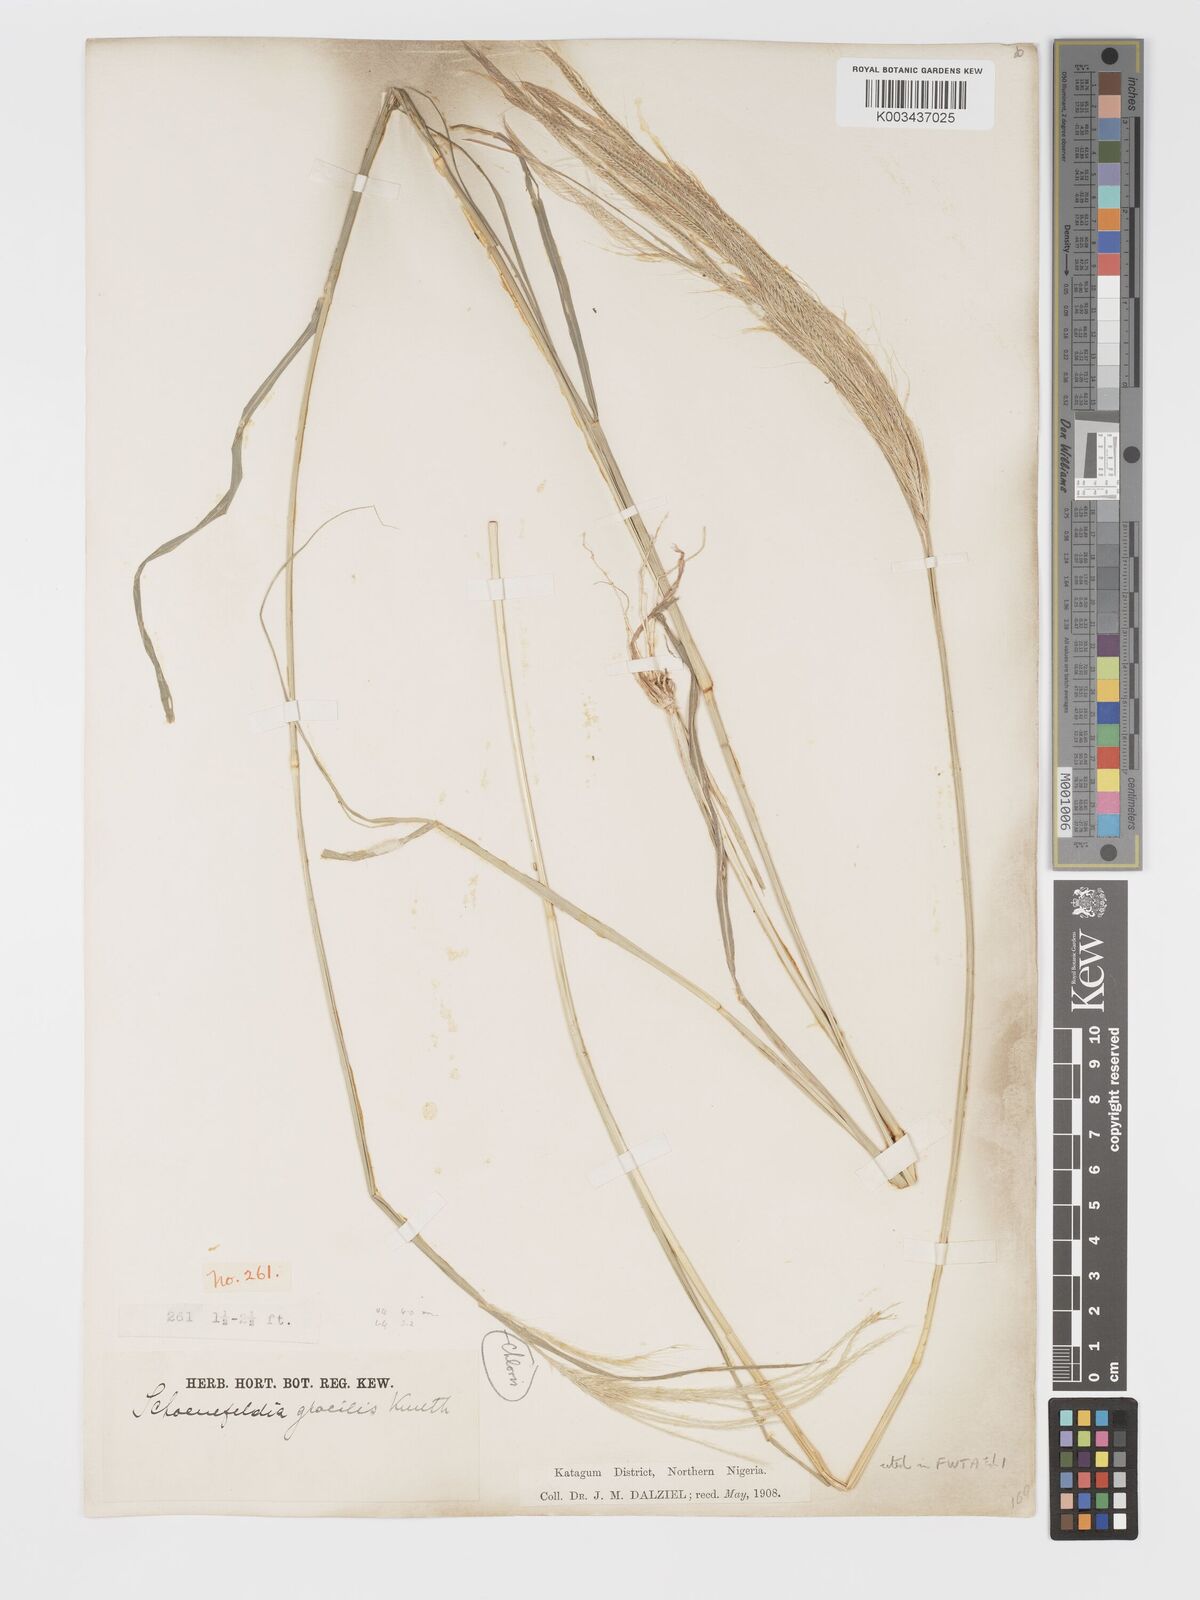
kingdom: Plantae
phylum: Tracheophyta
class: Liliopsida
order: Poales
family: Poaceae
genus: Schoenefeldia
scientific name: Schoenefeldia gracilis
